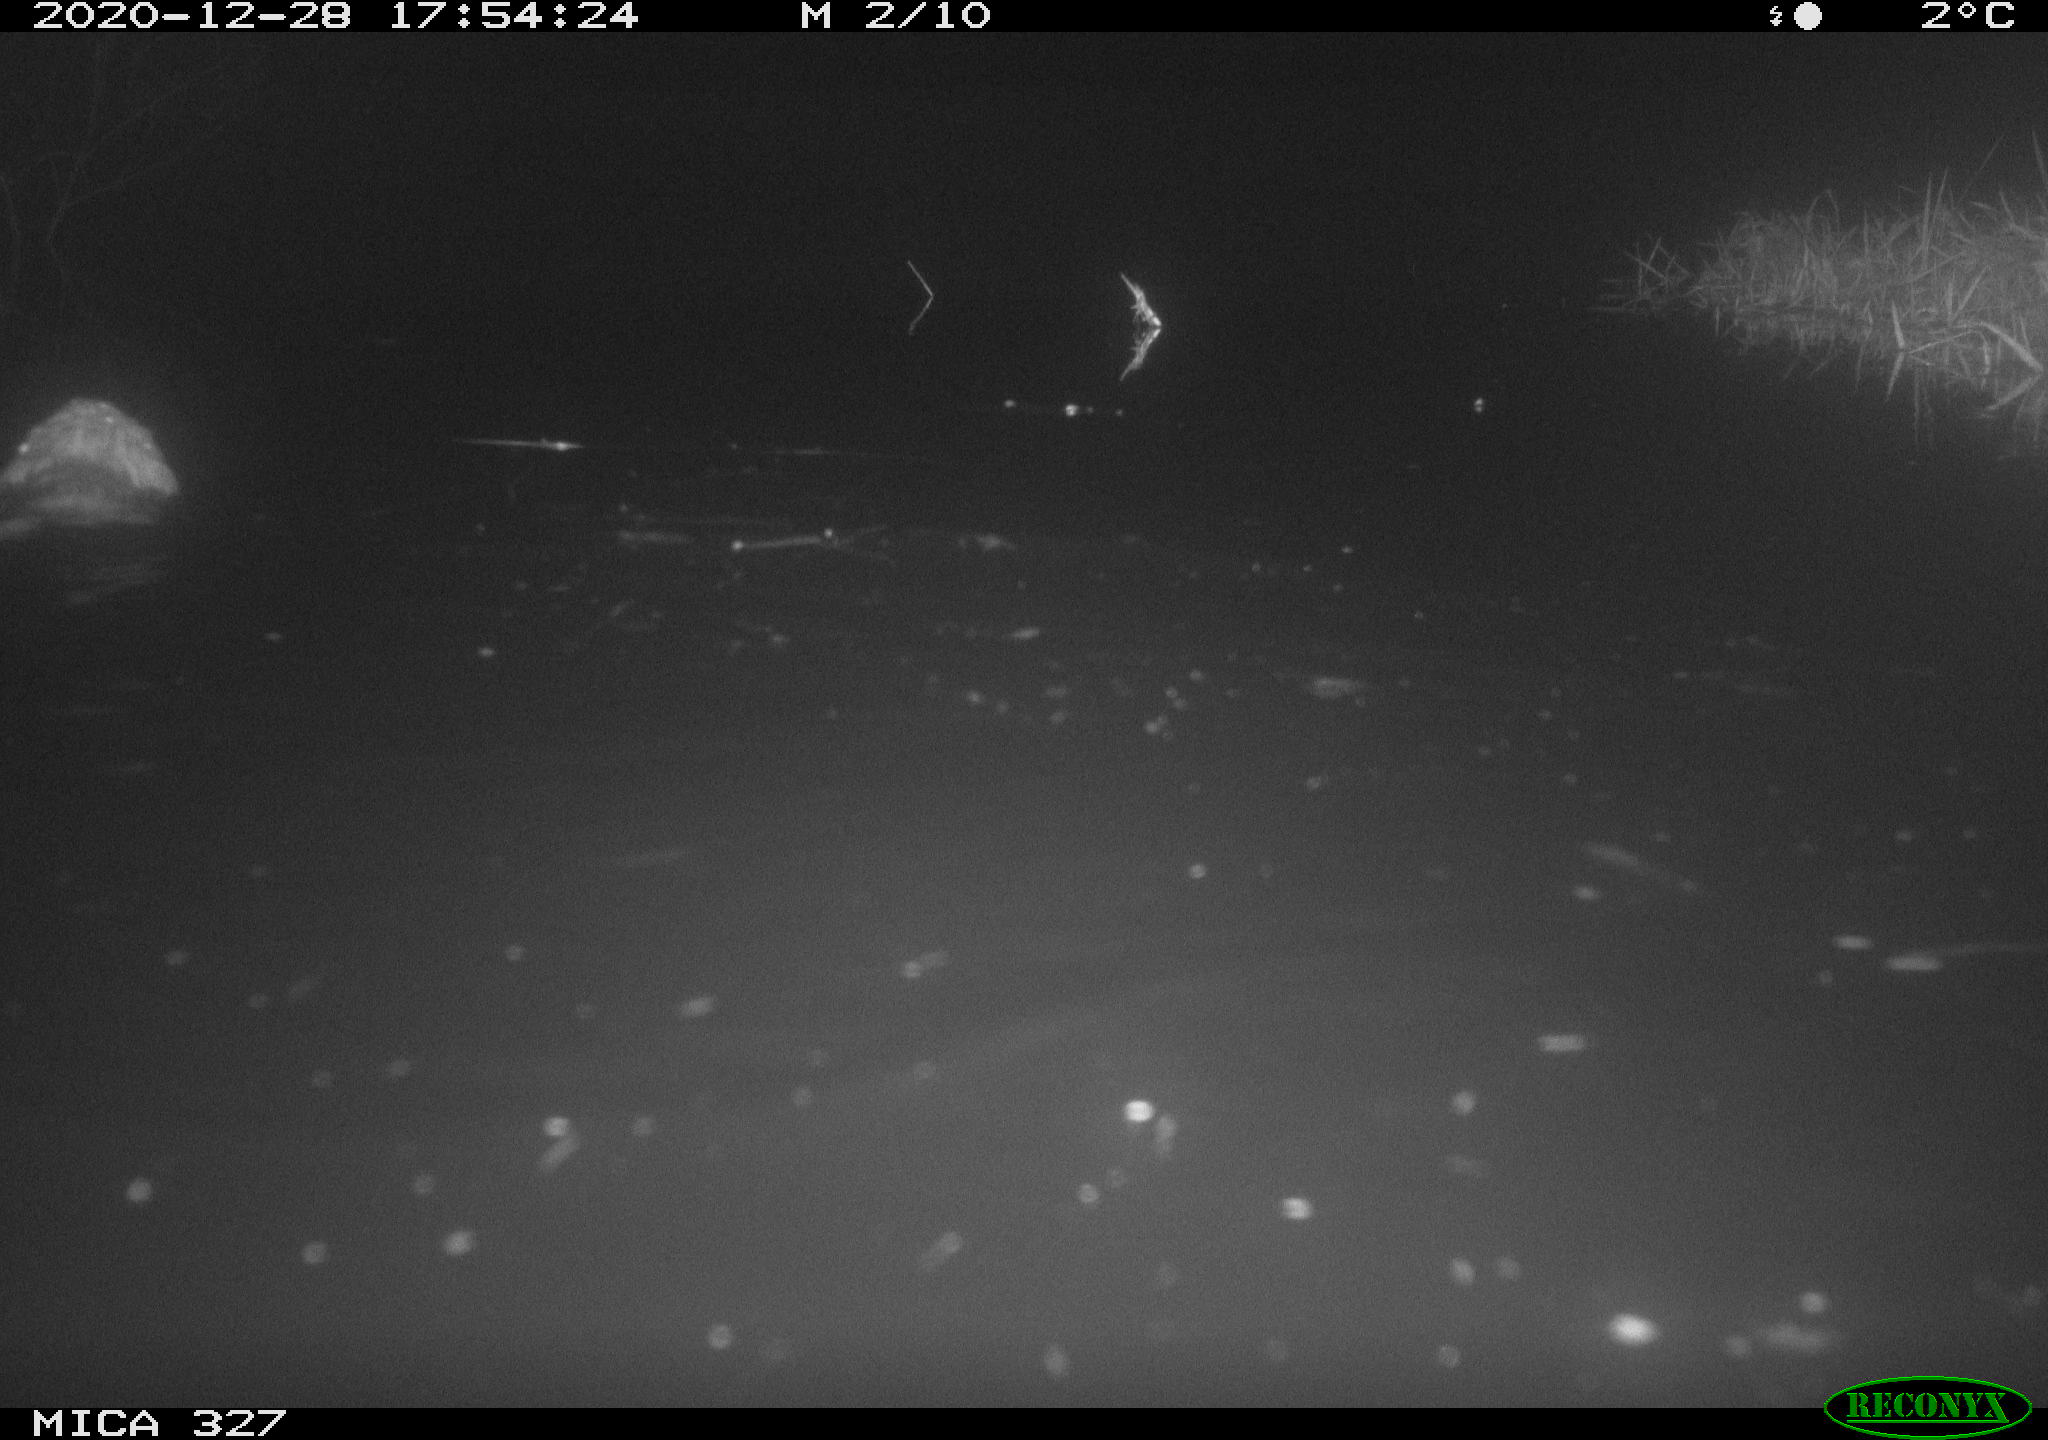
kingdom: Animalia
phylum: Chordata
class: Mammalia
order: Rodentia
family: Cricetidae
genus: Ondatra
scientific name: Ondatra zibethicus
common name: Muskrat
